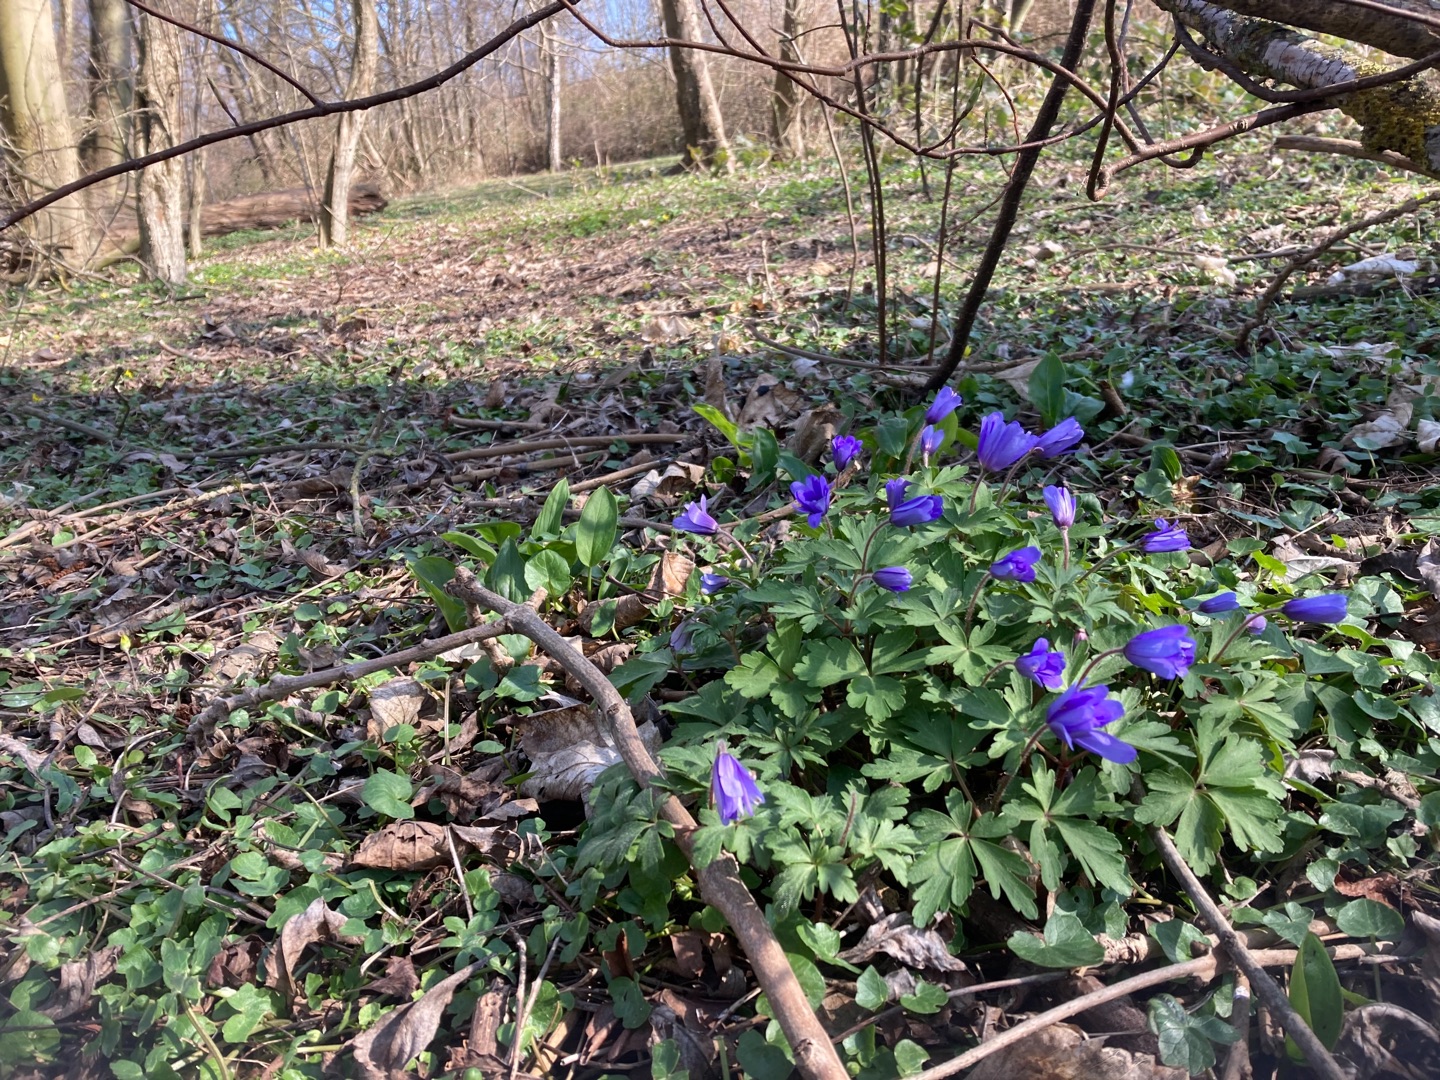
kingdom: Plantae
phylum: Tracheophyta
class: Magnoliopsida
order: Ranunculales
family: Ranunculaceae
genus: Anemone
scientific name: Anemone blanda
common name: Balkan-anemone
